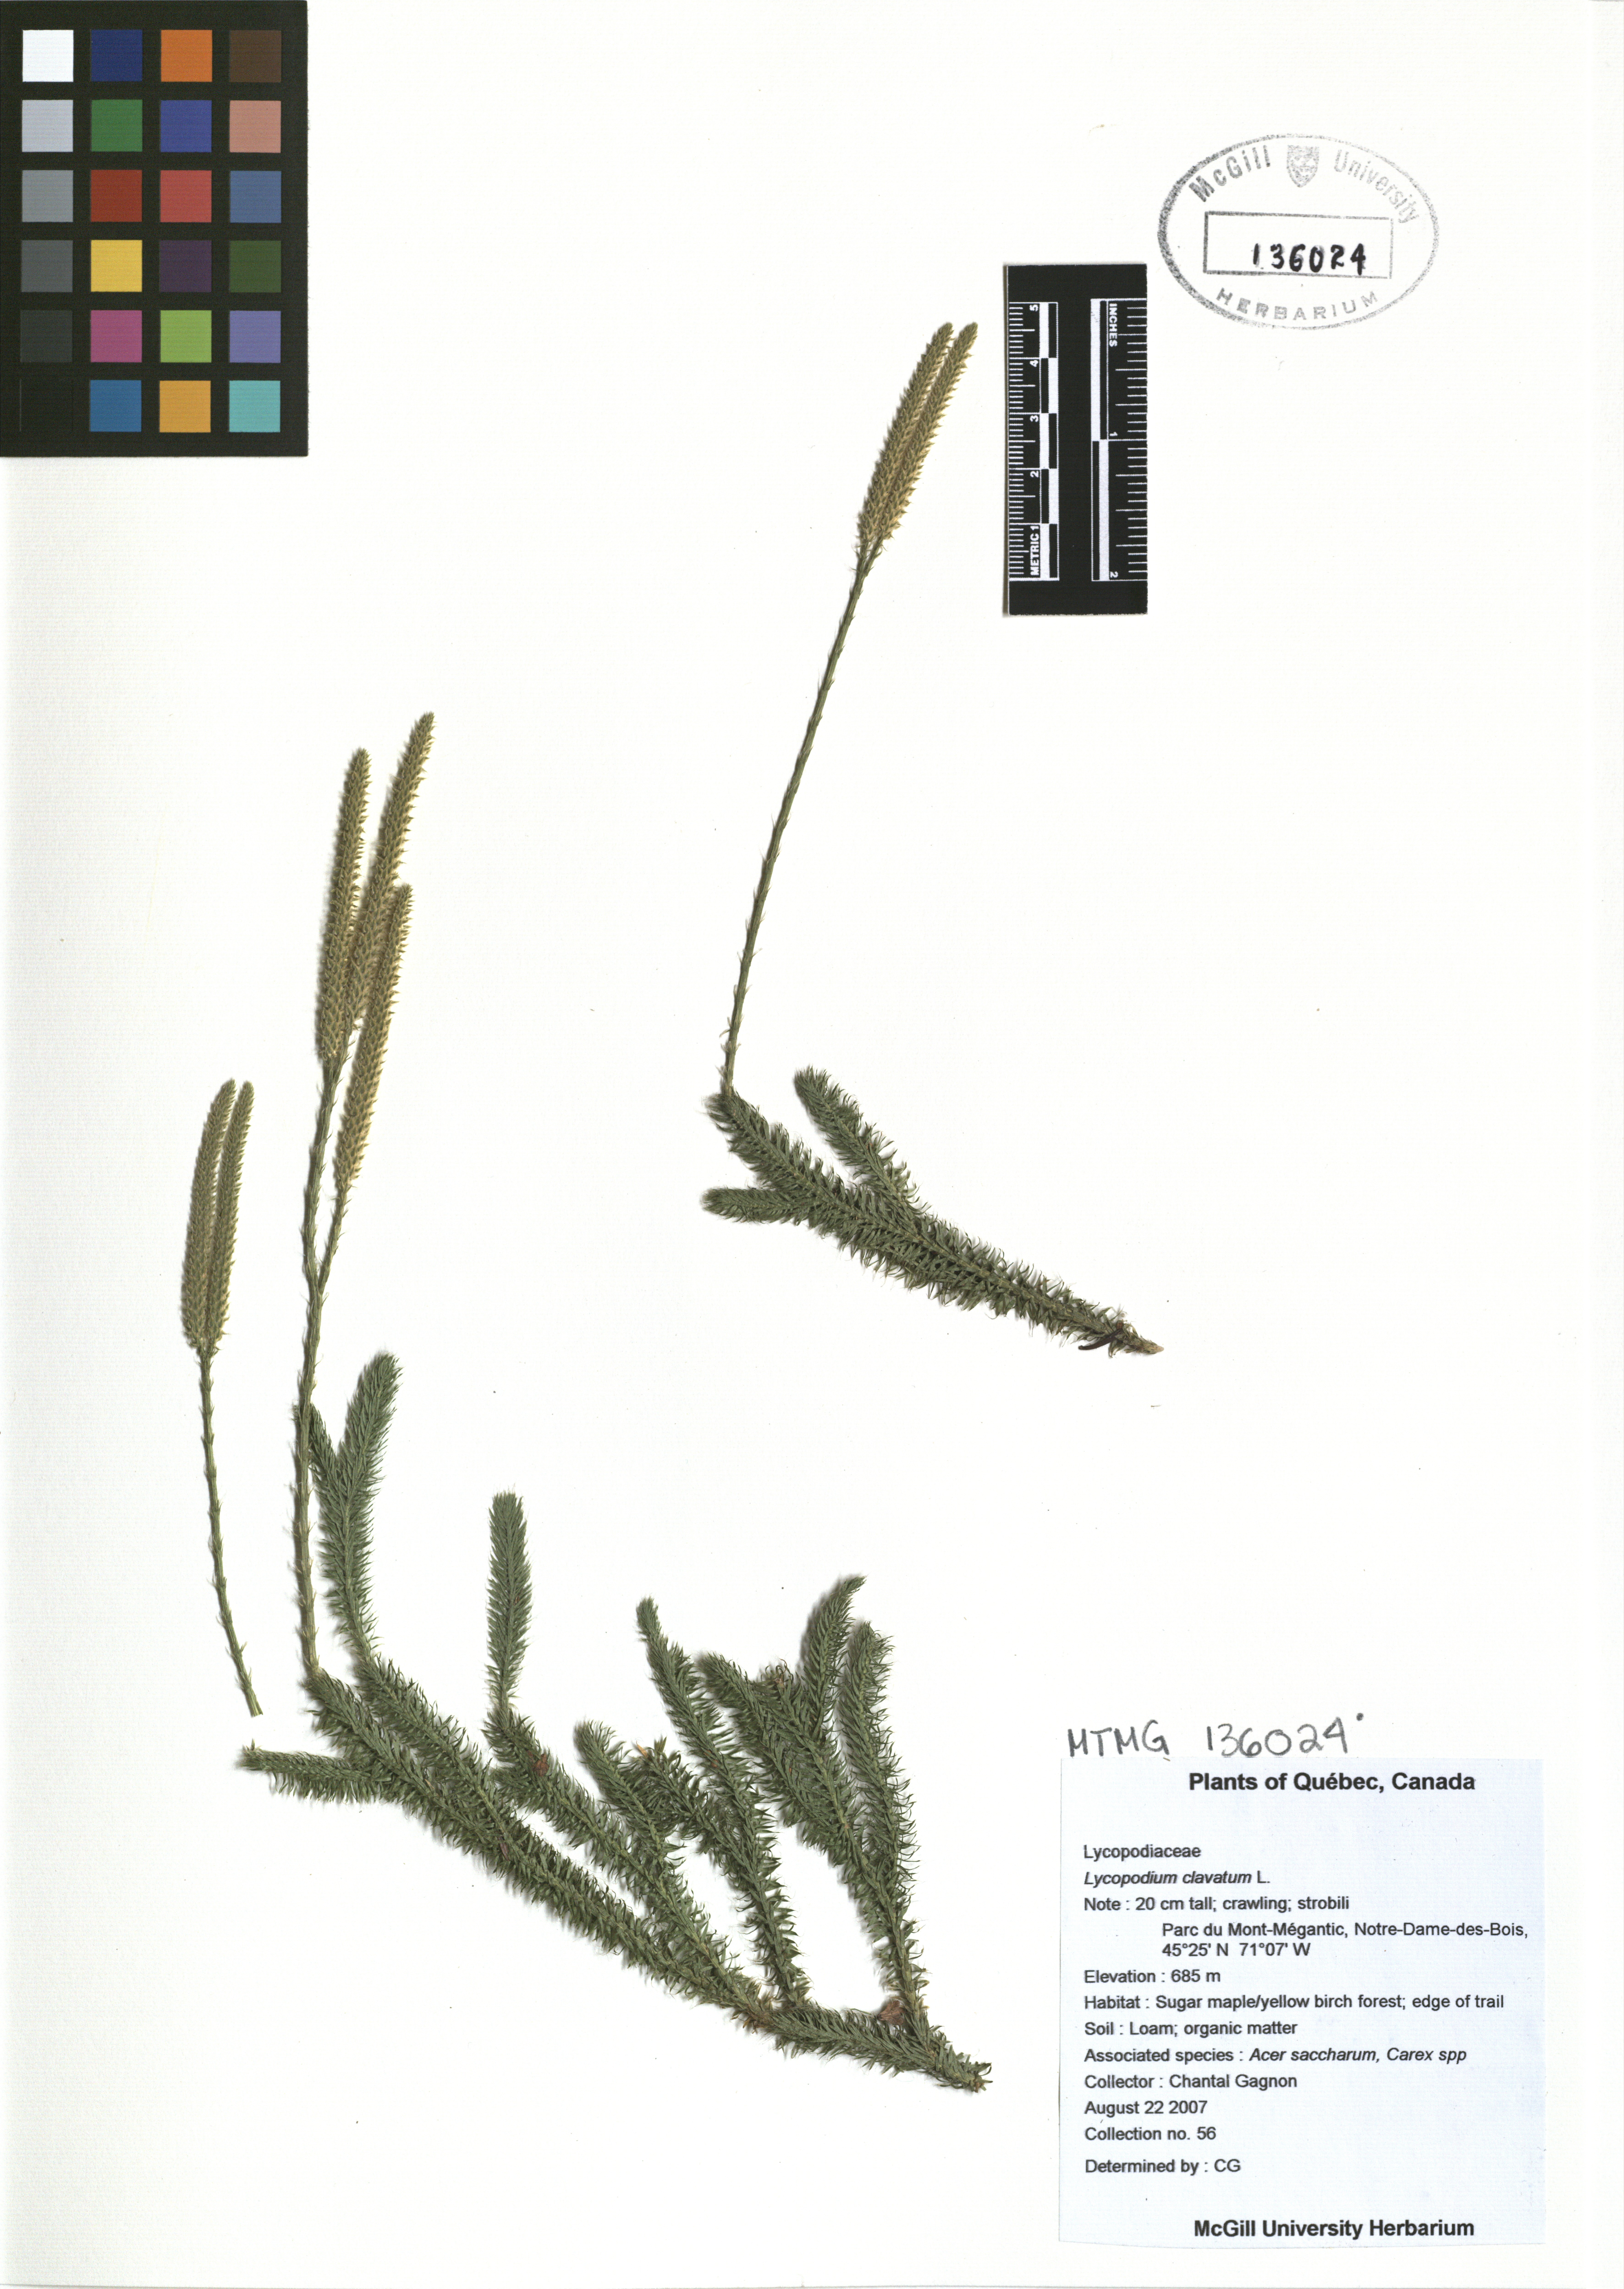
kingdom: Plantae
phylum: Tracheophyta
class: Lycopodiopsida
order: Lycopodiales
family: Lycopodiaceae
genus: Lycopodium
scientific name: Lycopodium clavatum
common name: Stag's-horn clubmoss
